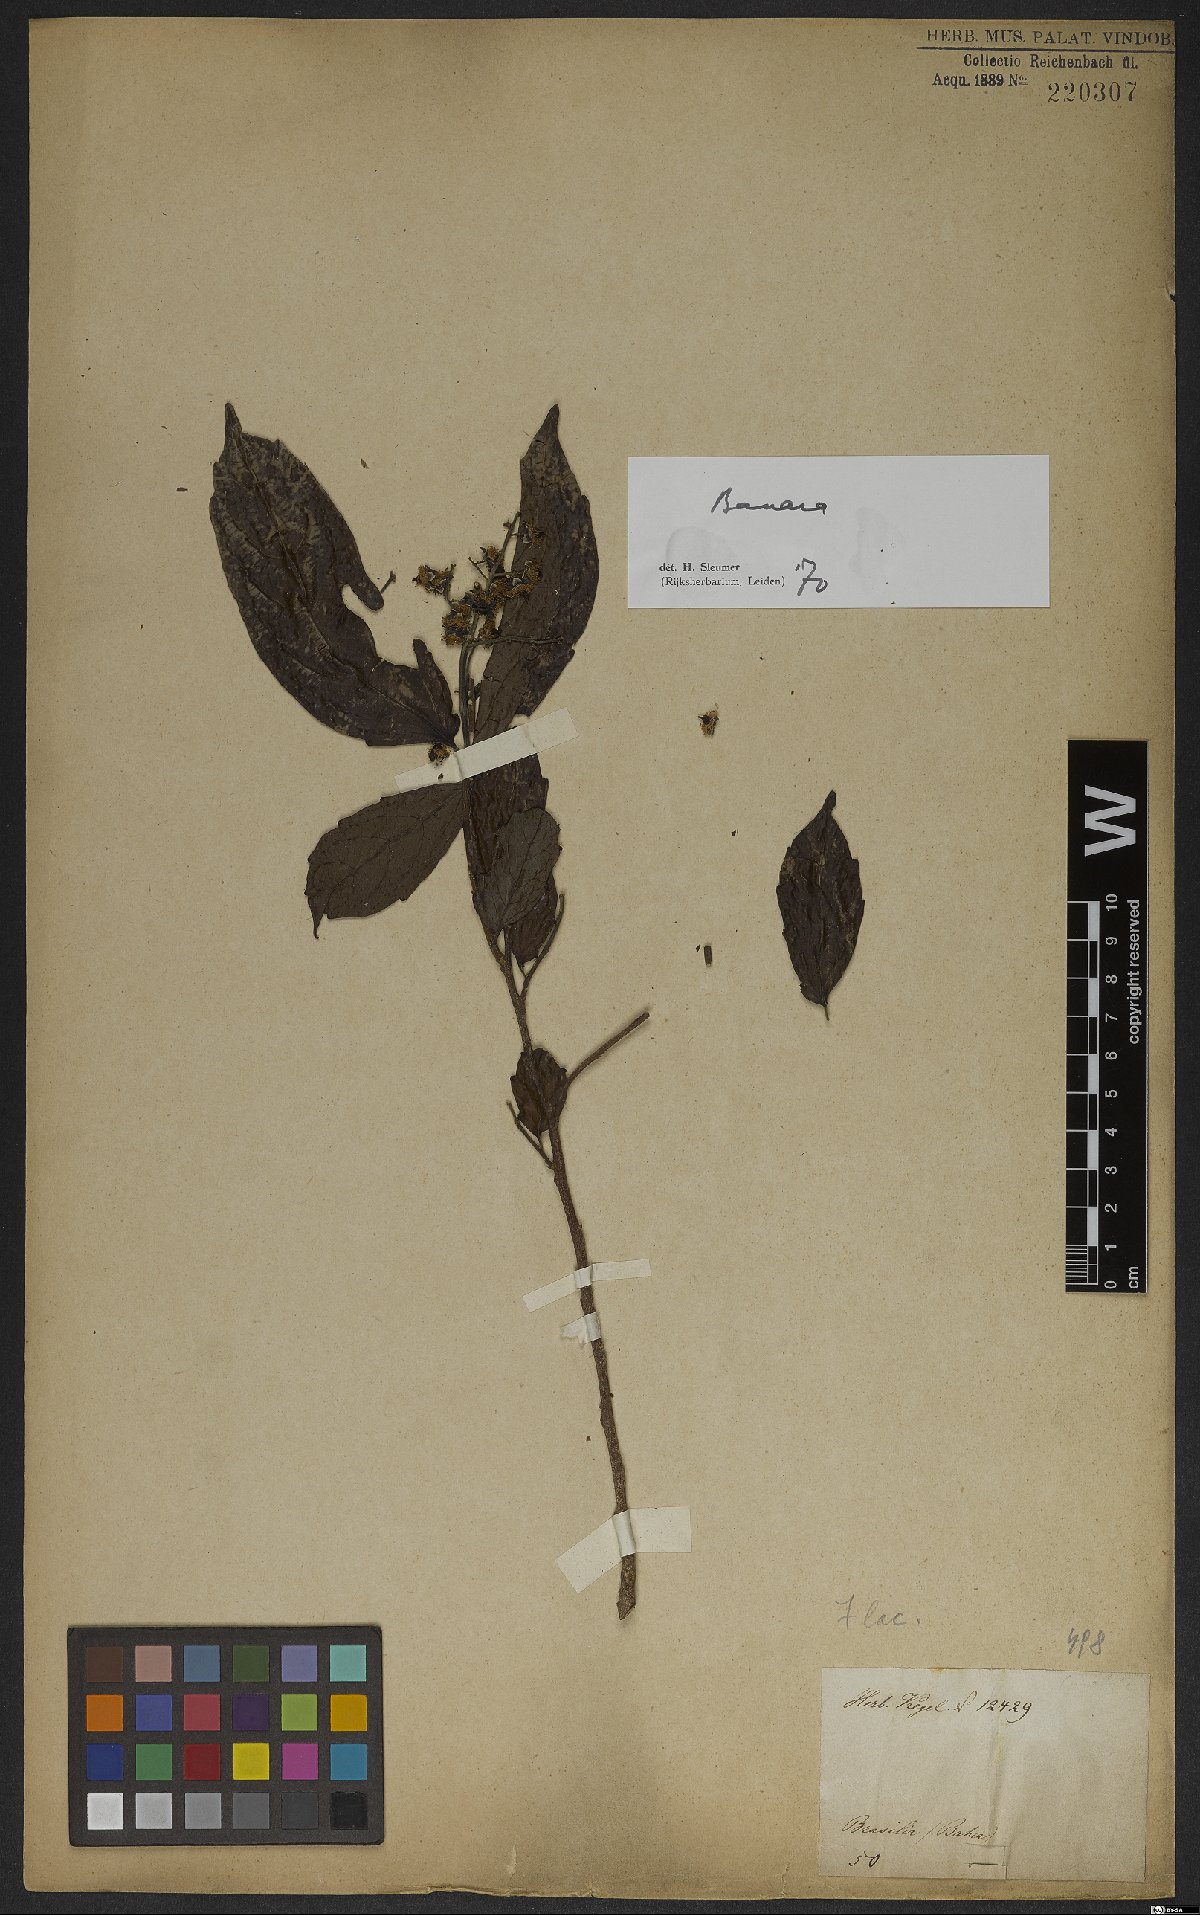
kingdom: Plantae
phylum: Tracheophyta
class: Magnoliopsida
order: Malpighiales
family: Salicaceae
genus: Banara
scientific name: Banara
